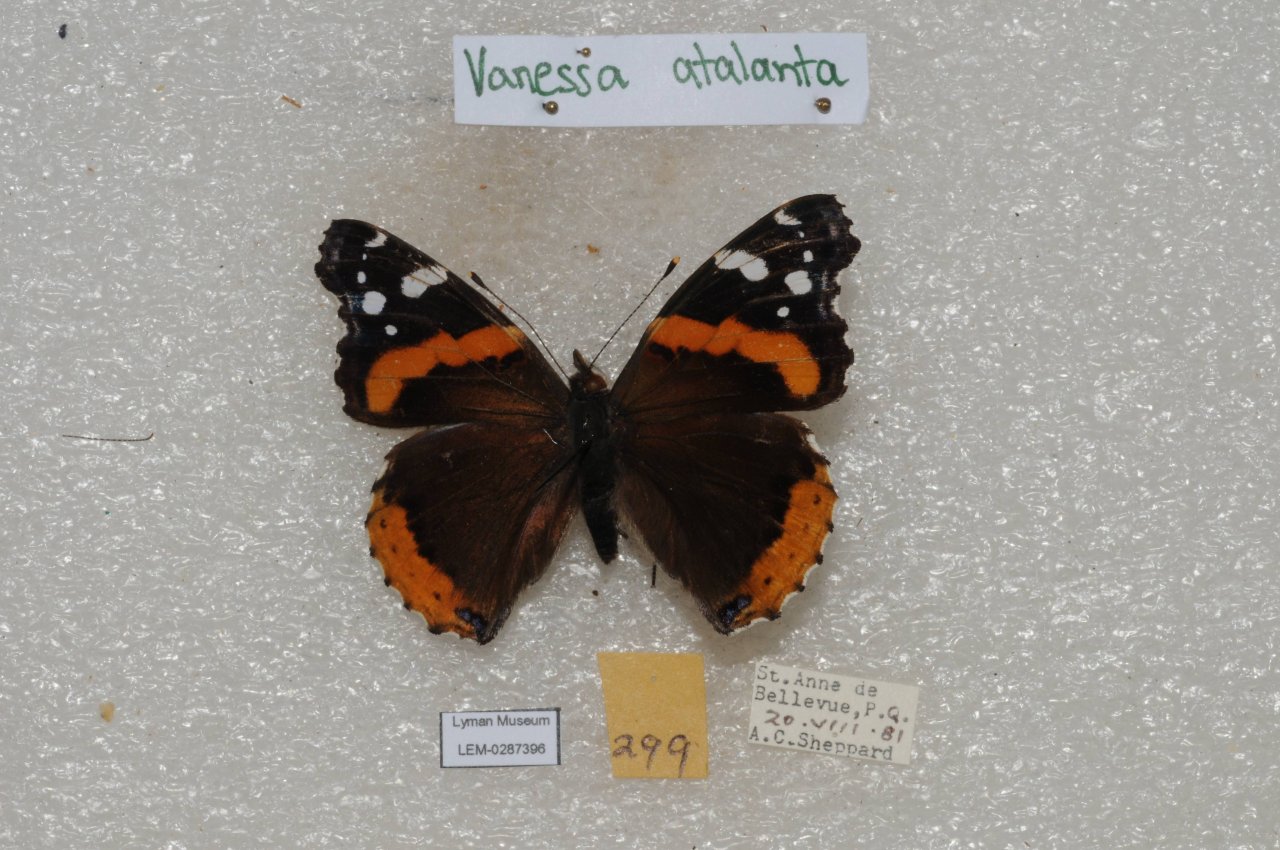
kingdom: Animalia
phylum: Arthropoda
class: Insecta
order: Lepidoptera
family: Nymphalidae
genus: Vanessa
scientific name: Vanessa atalanta
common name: Red Admiral
